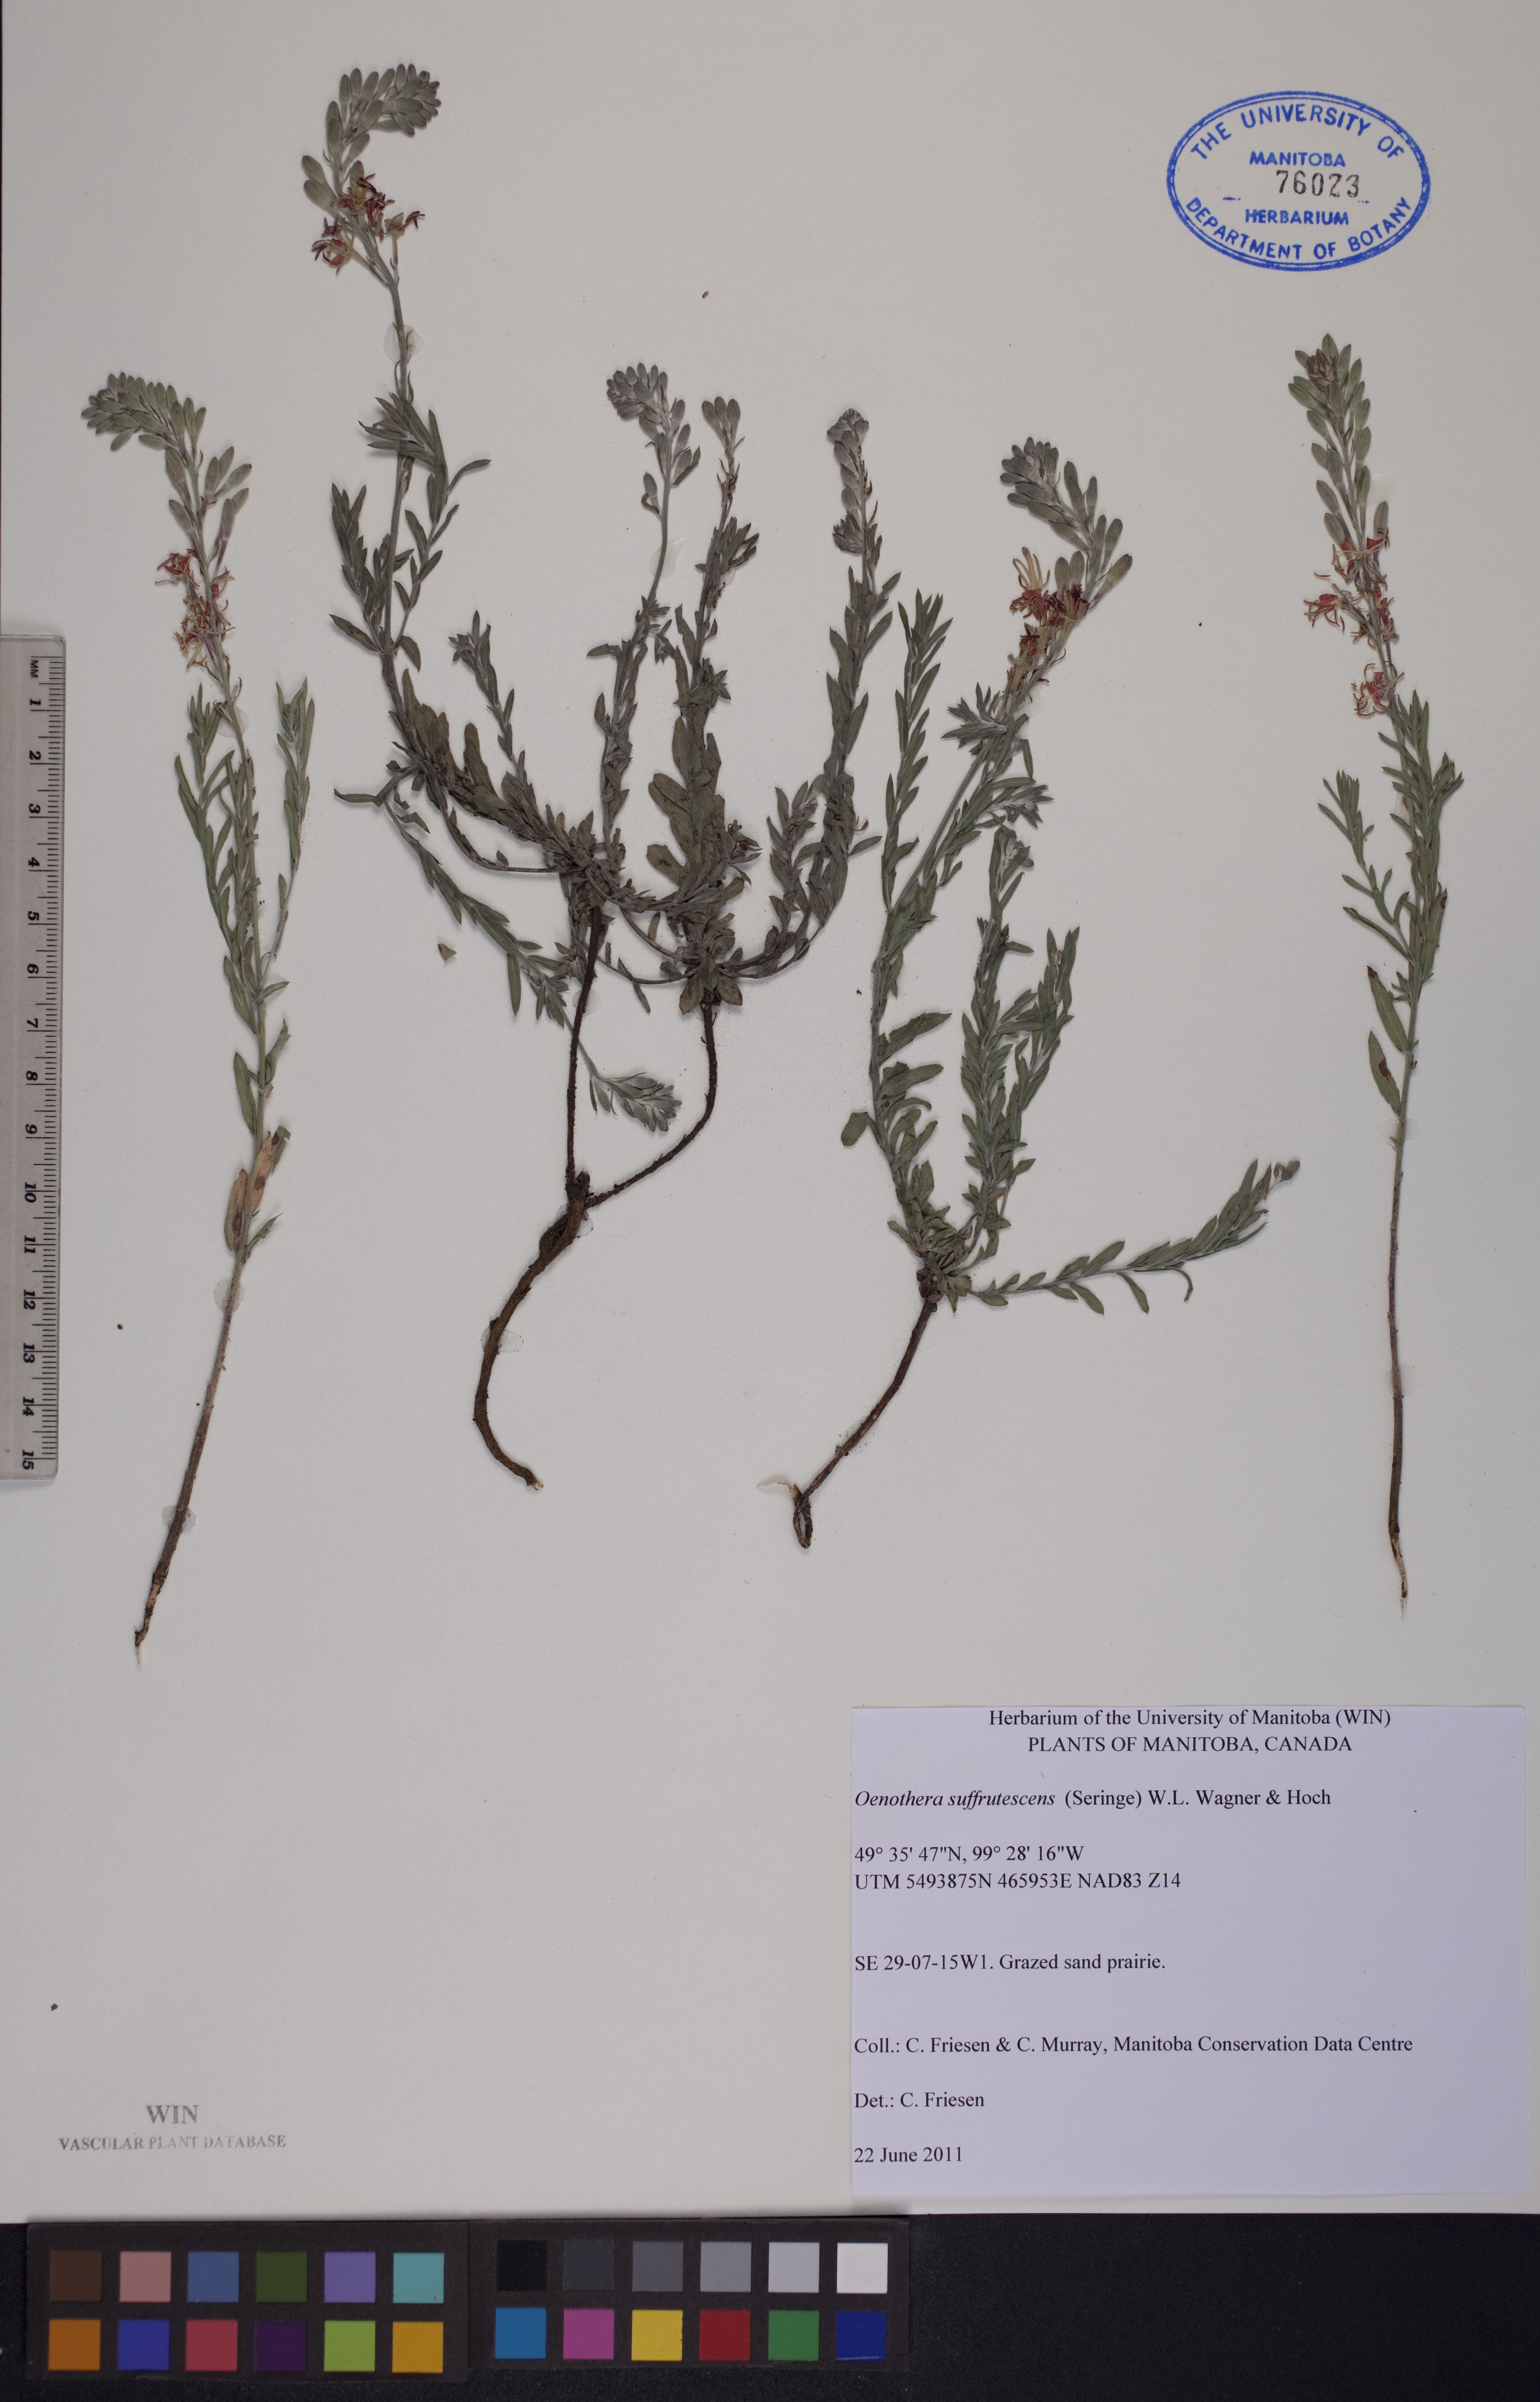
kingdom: Plantae
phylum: Tracheophyta
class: Magnoliopsida
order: Myrtales
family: Onagraceae
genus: Oenothera
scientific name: Oenothera suffrutescens
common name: Scarlet beeblossom
